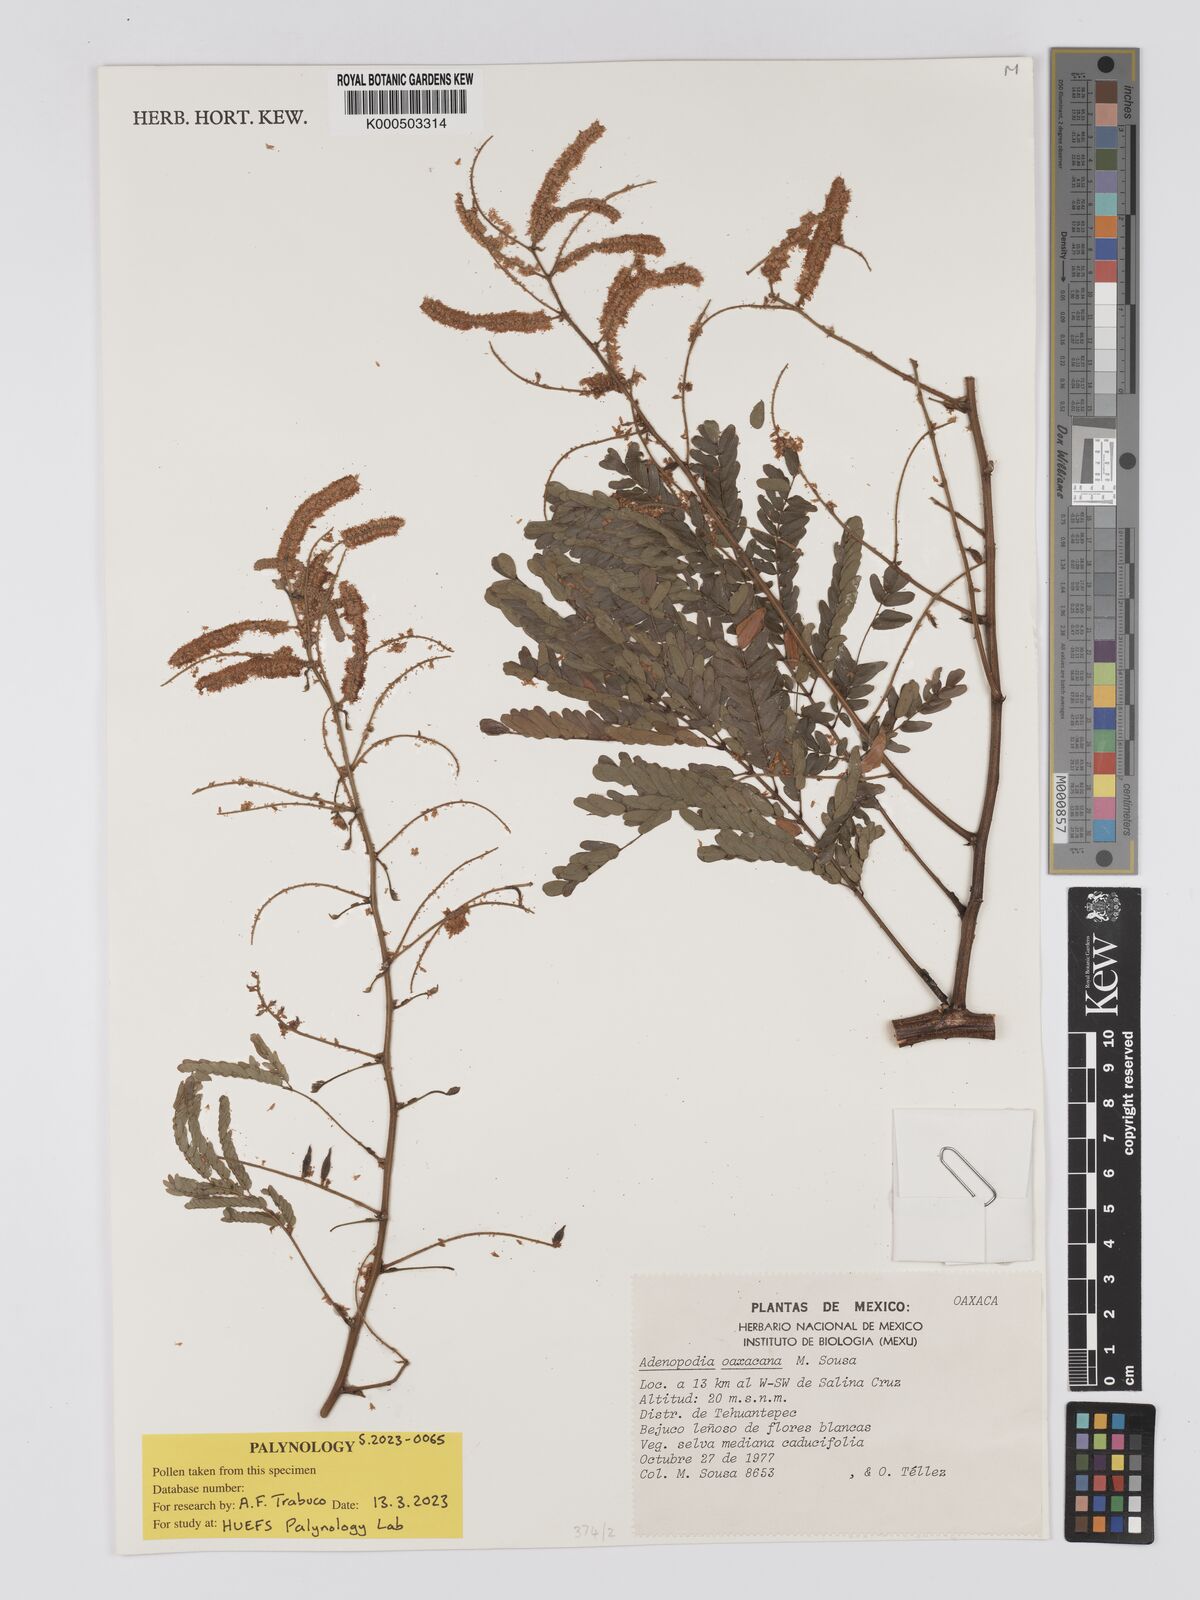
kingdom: Plantae
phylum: Tracheophyta
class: Magnoliopsida
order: Fabales
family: Fabaceae
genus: Adenopodia
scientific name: Adenopodia oaxacana
